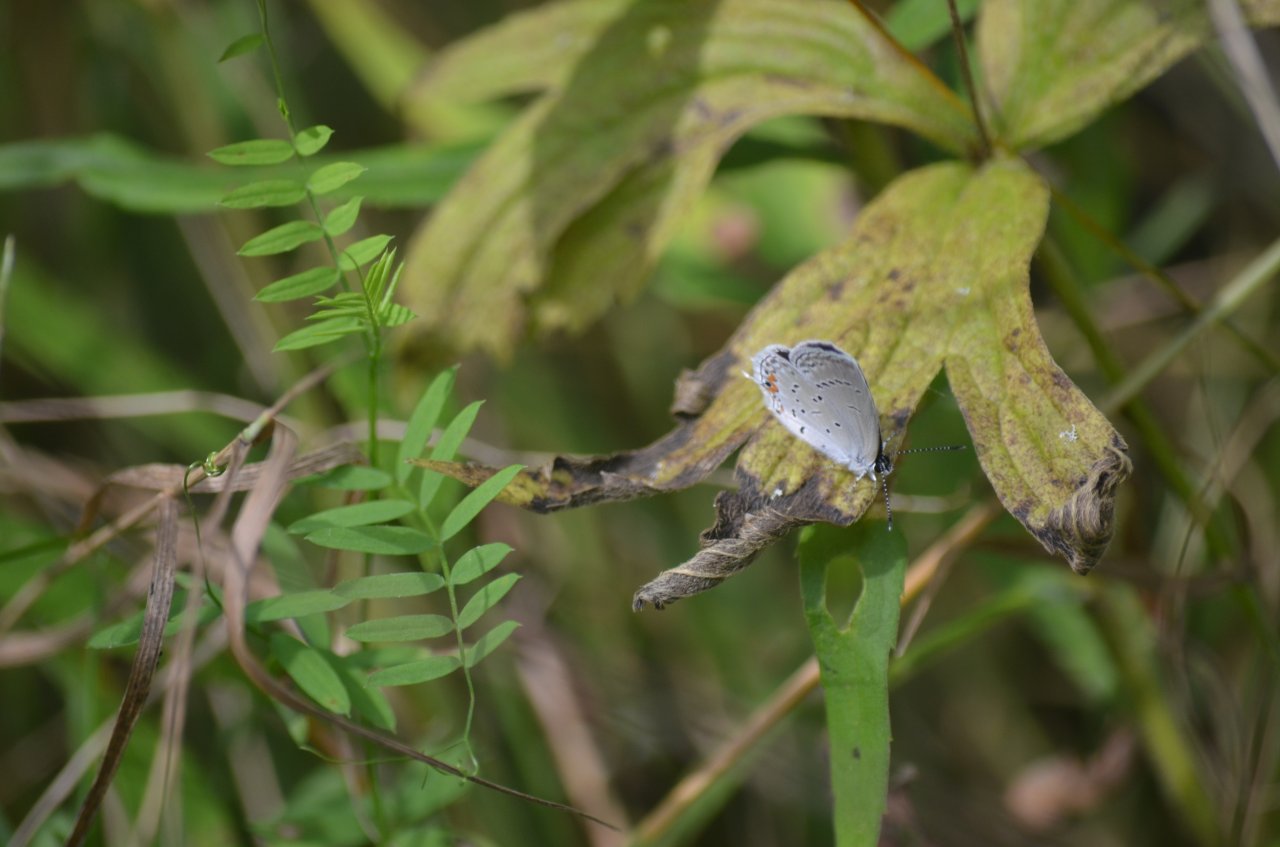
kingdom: Animalia
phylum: Arthropoda
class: Insecta
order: Lepidoptera
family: Lycaenidae
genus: Elkalyce
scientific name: Elkalyce comyntas
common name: Eastern Tailed-Blue
